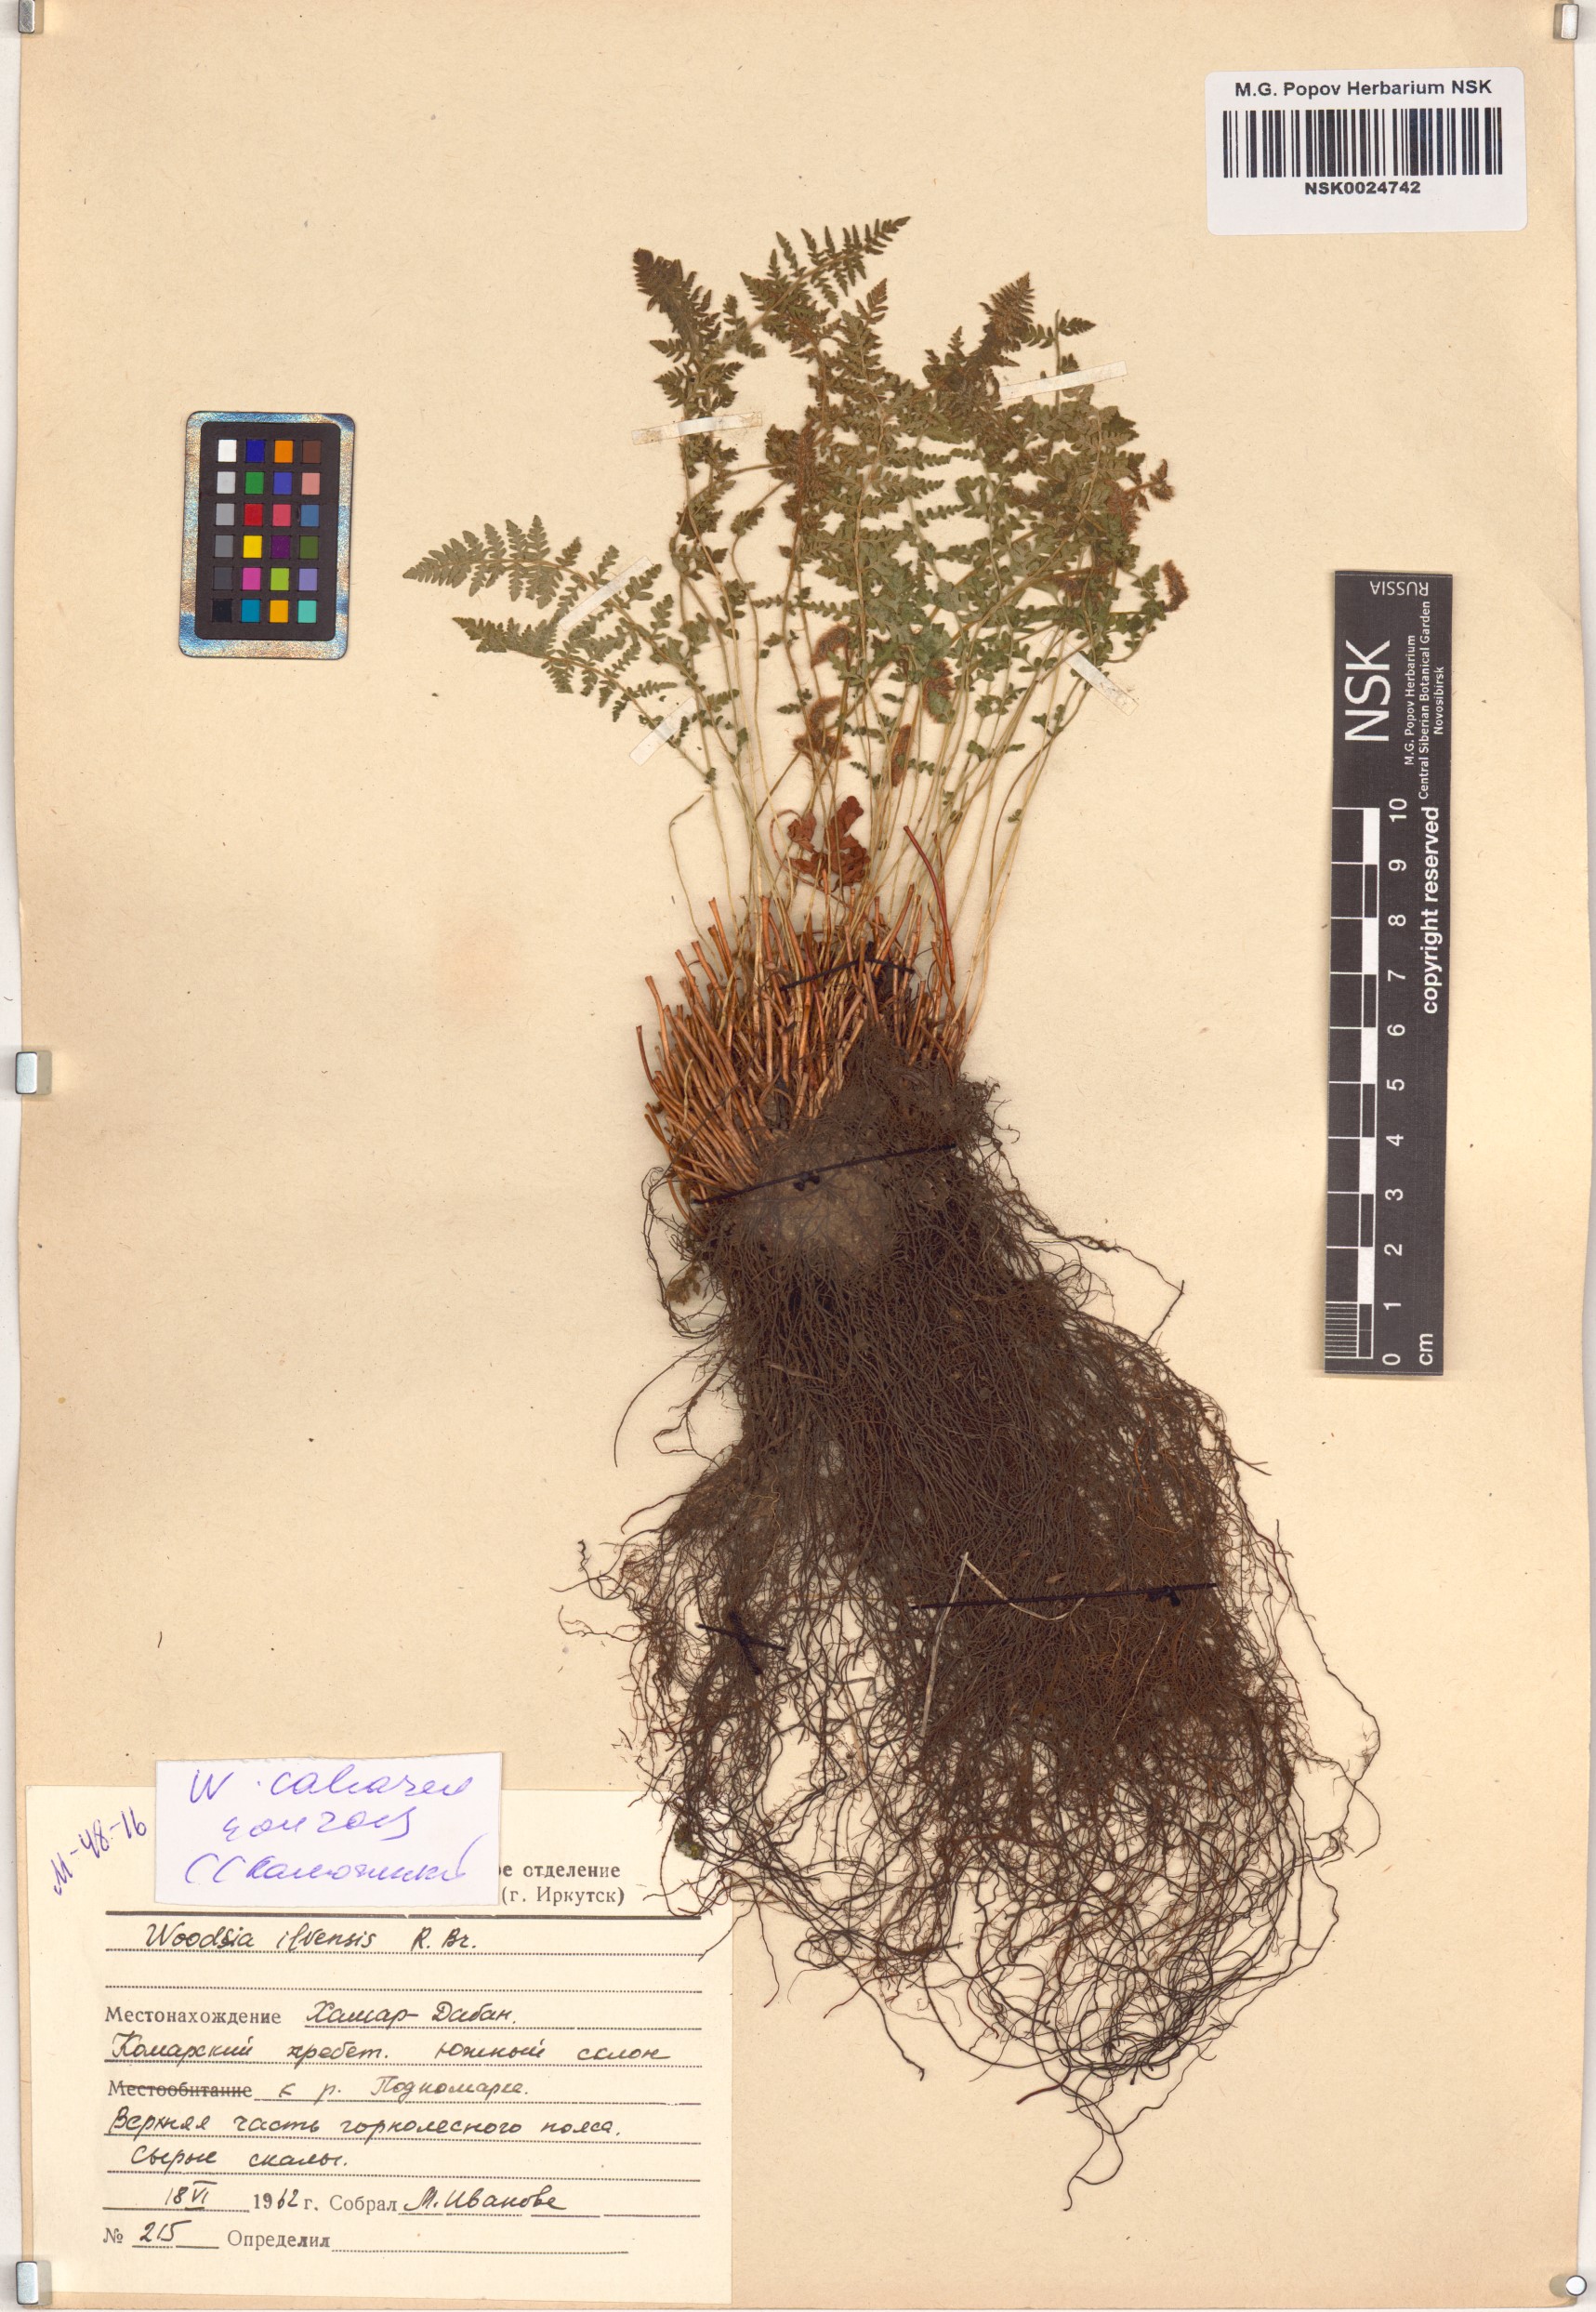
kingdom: Plantae
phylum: Tracheophyta
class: Polypodiopsida
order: Polypodiales
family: Woodsiaceae
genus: Woodsia
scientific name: Woodsia calcarea
